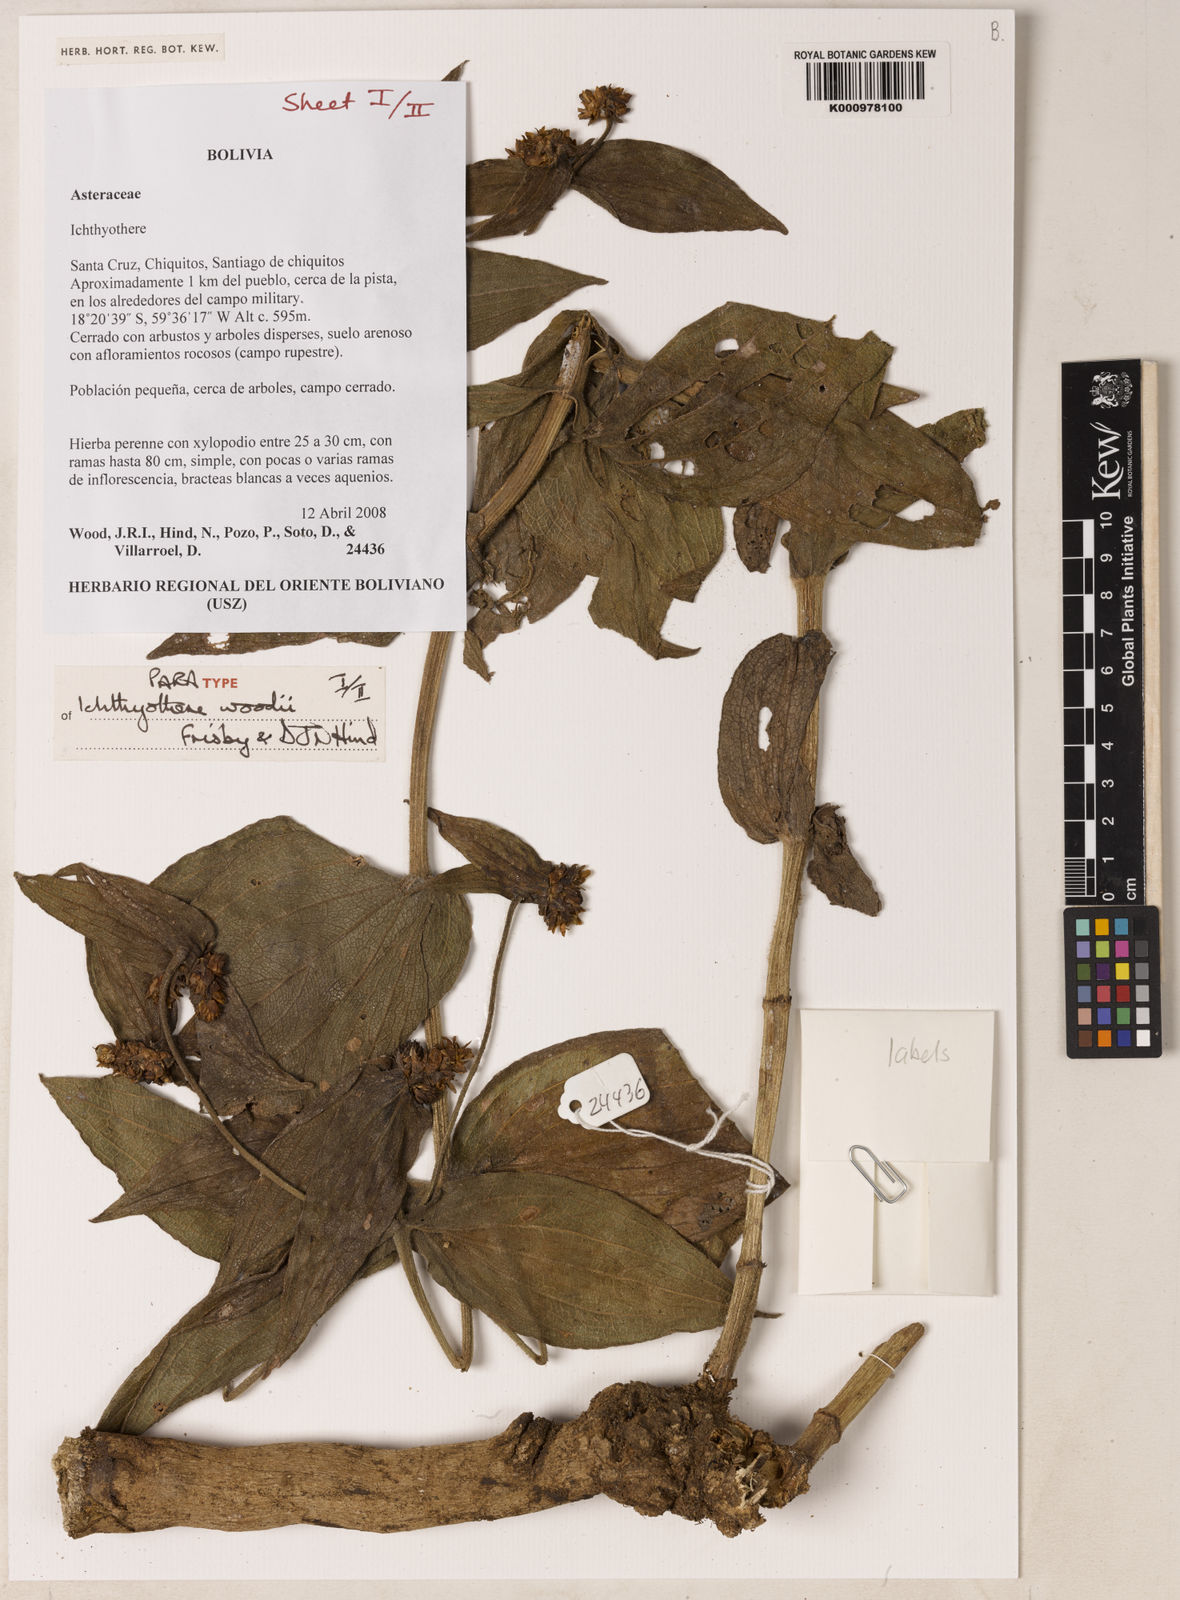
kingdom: Plantae
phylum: Tracheophyta
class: Magnoliopsida
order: Asterales
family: Asteraceae
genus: Ichthyothere
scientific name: Ichthyothere woodii
